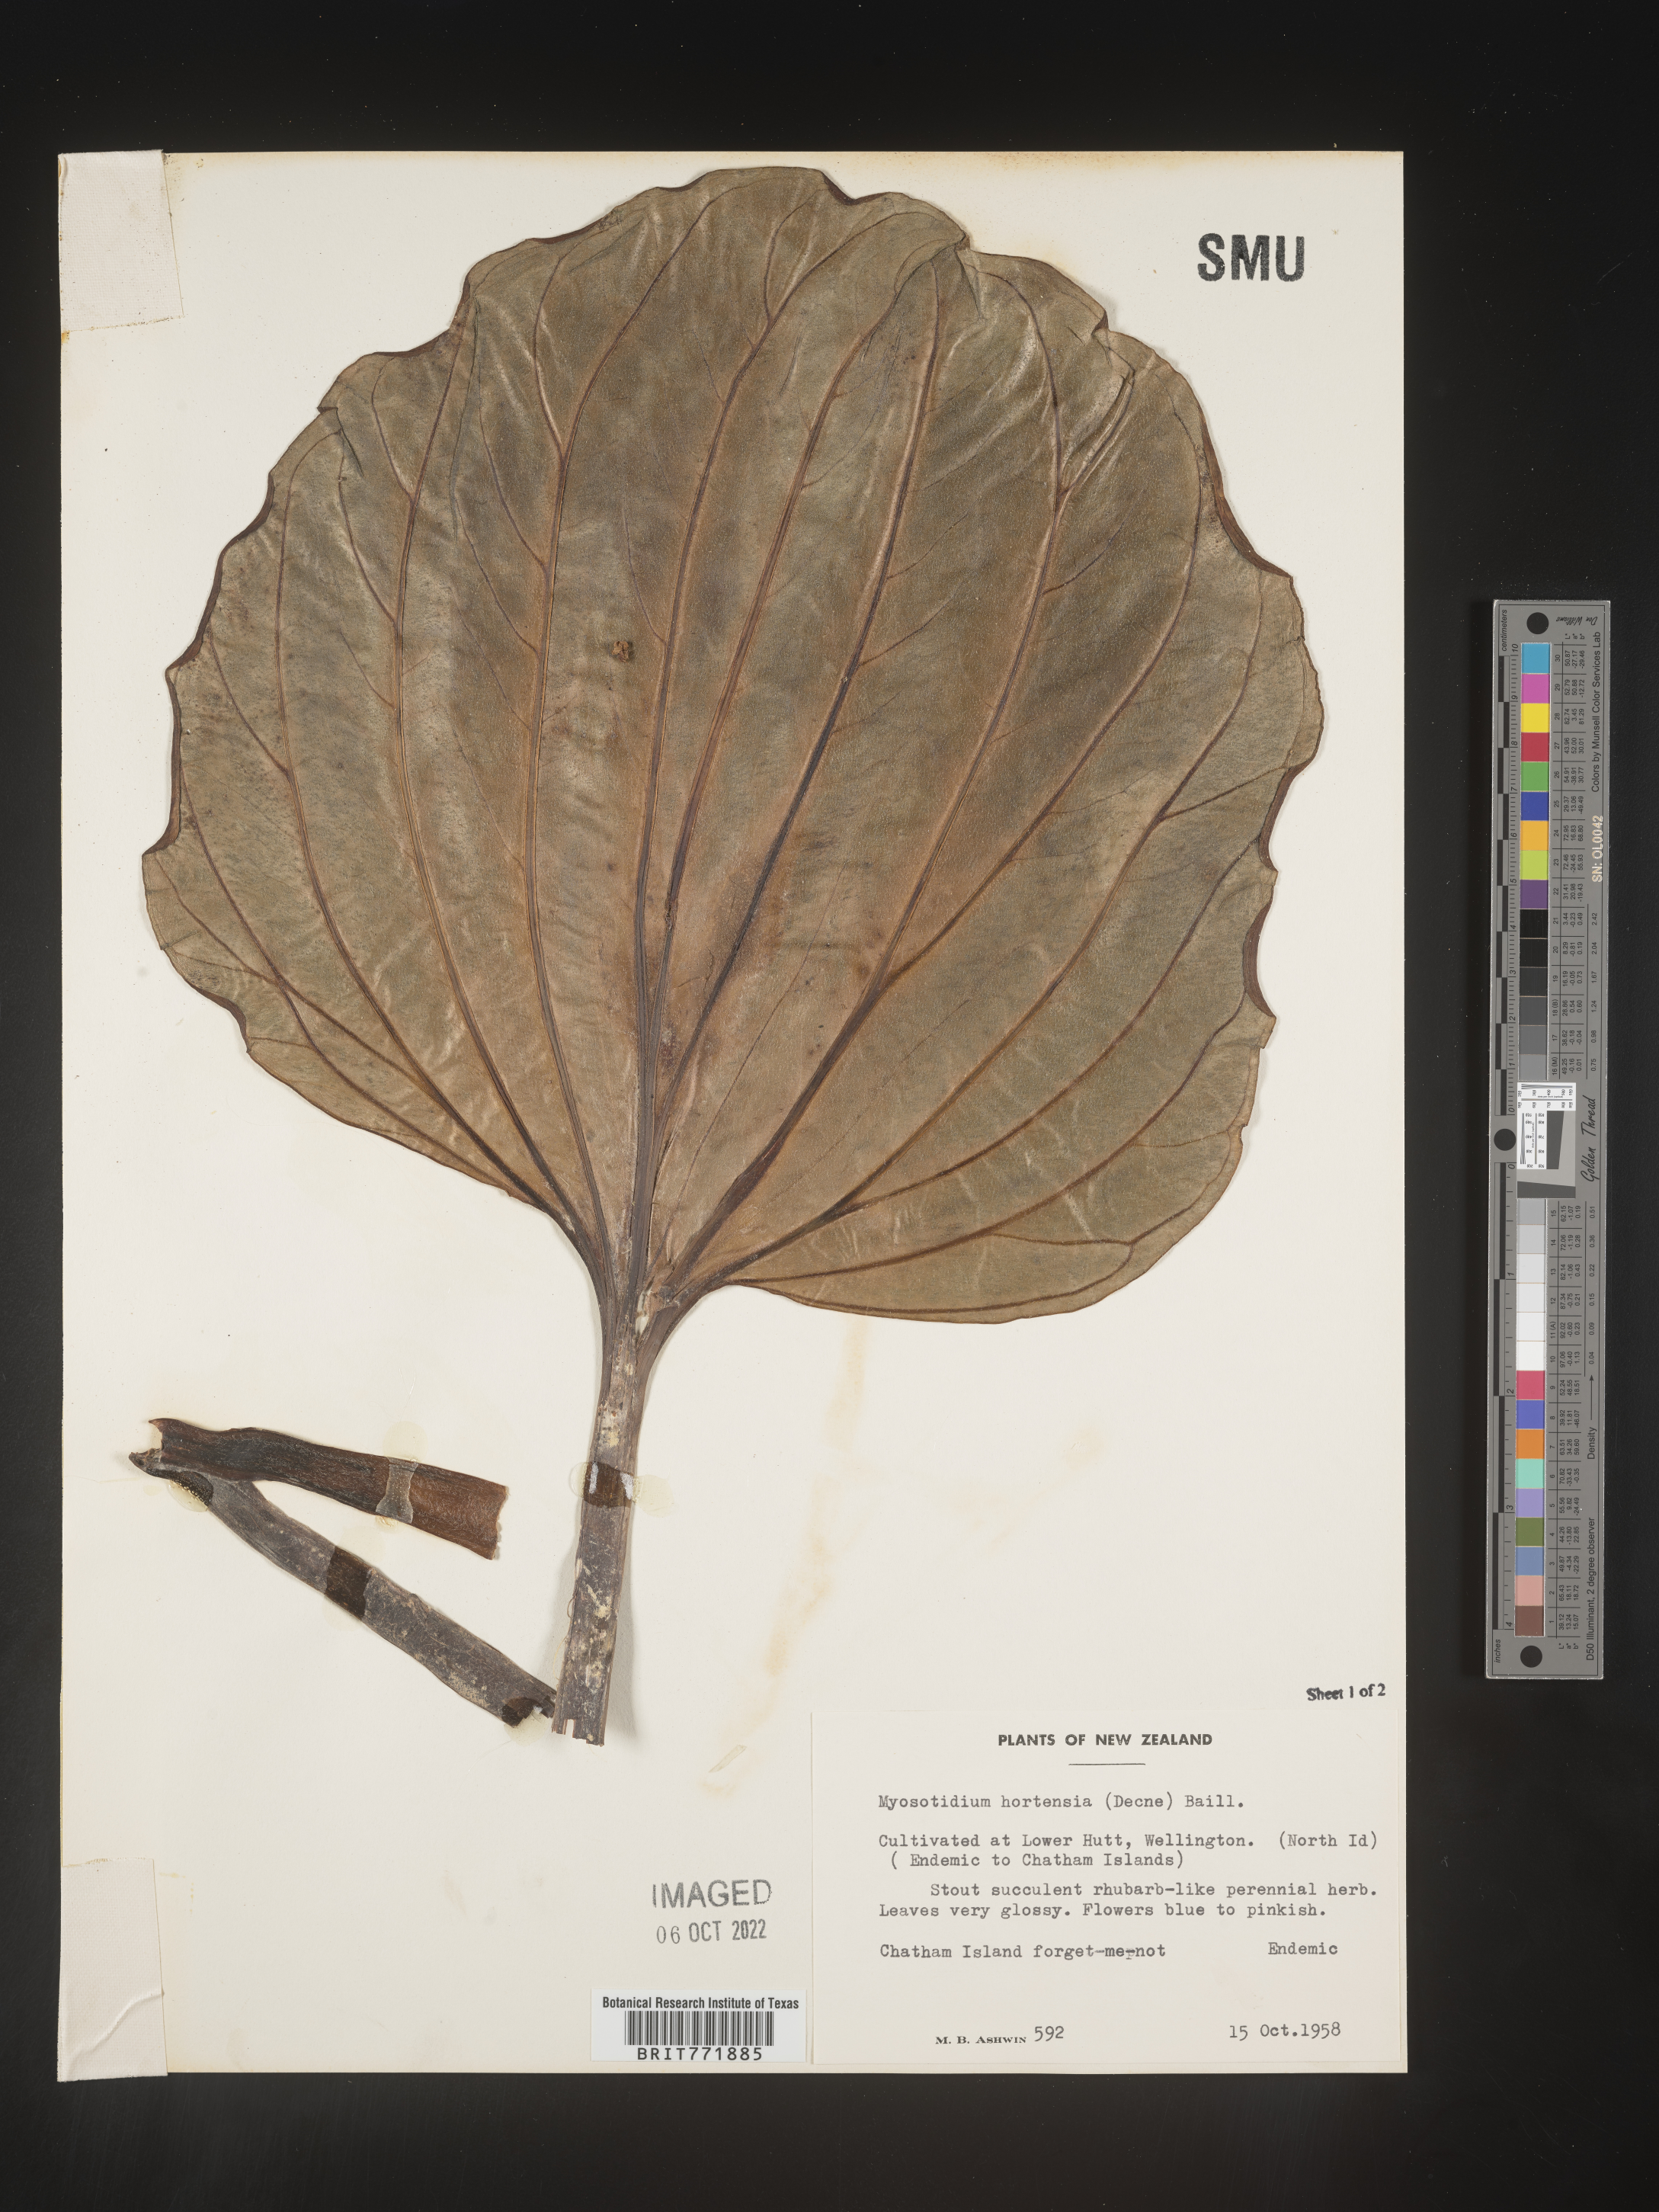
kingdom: Plantae
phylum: Tracheophyta
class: Magnoliopsida
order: Boraginales
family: Boraginaceae
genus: Myosotidium
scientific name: Myosotidium hortensia
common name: Giant forget-me-not
